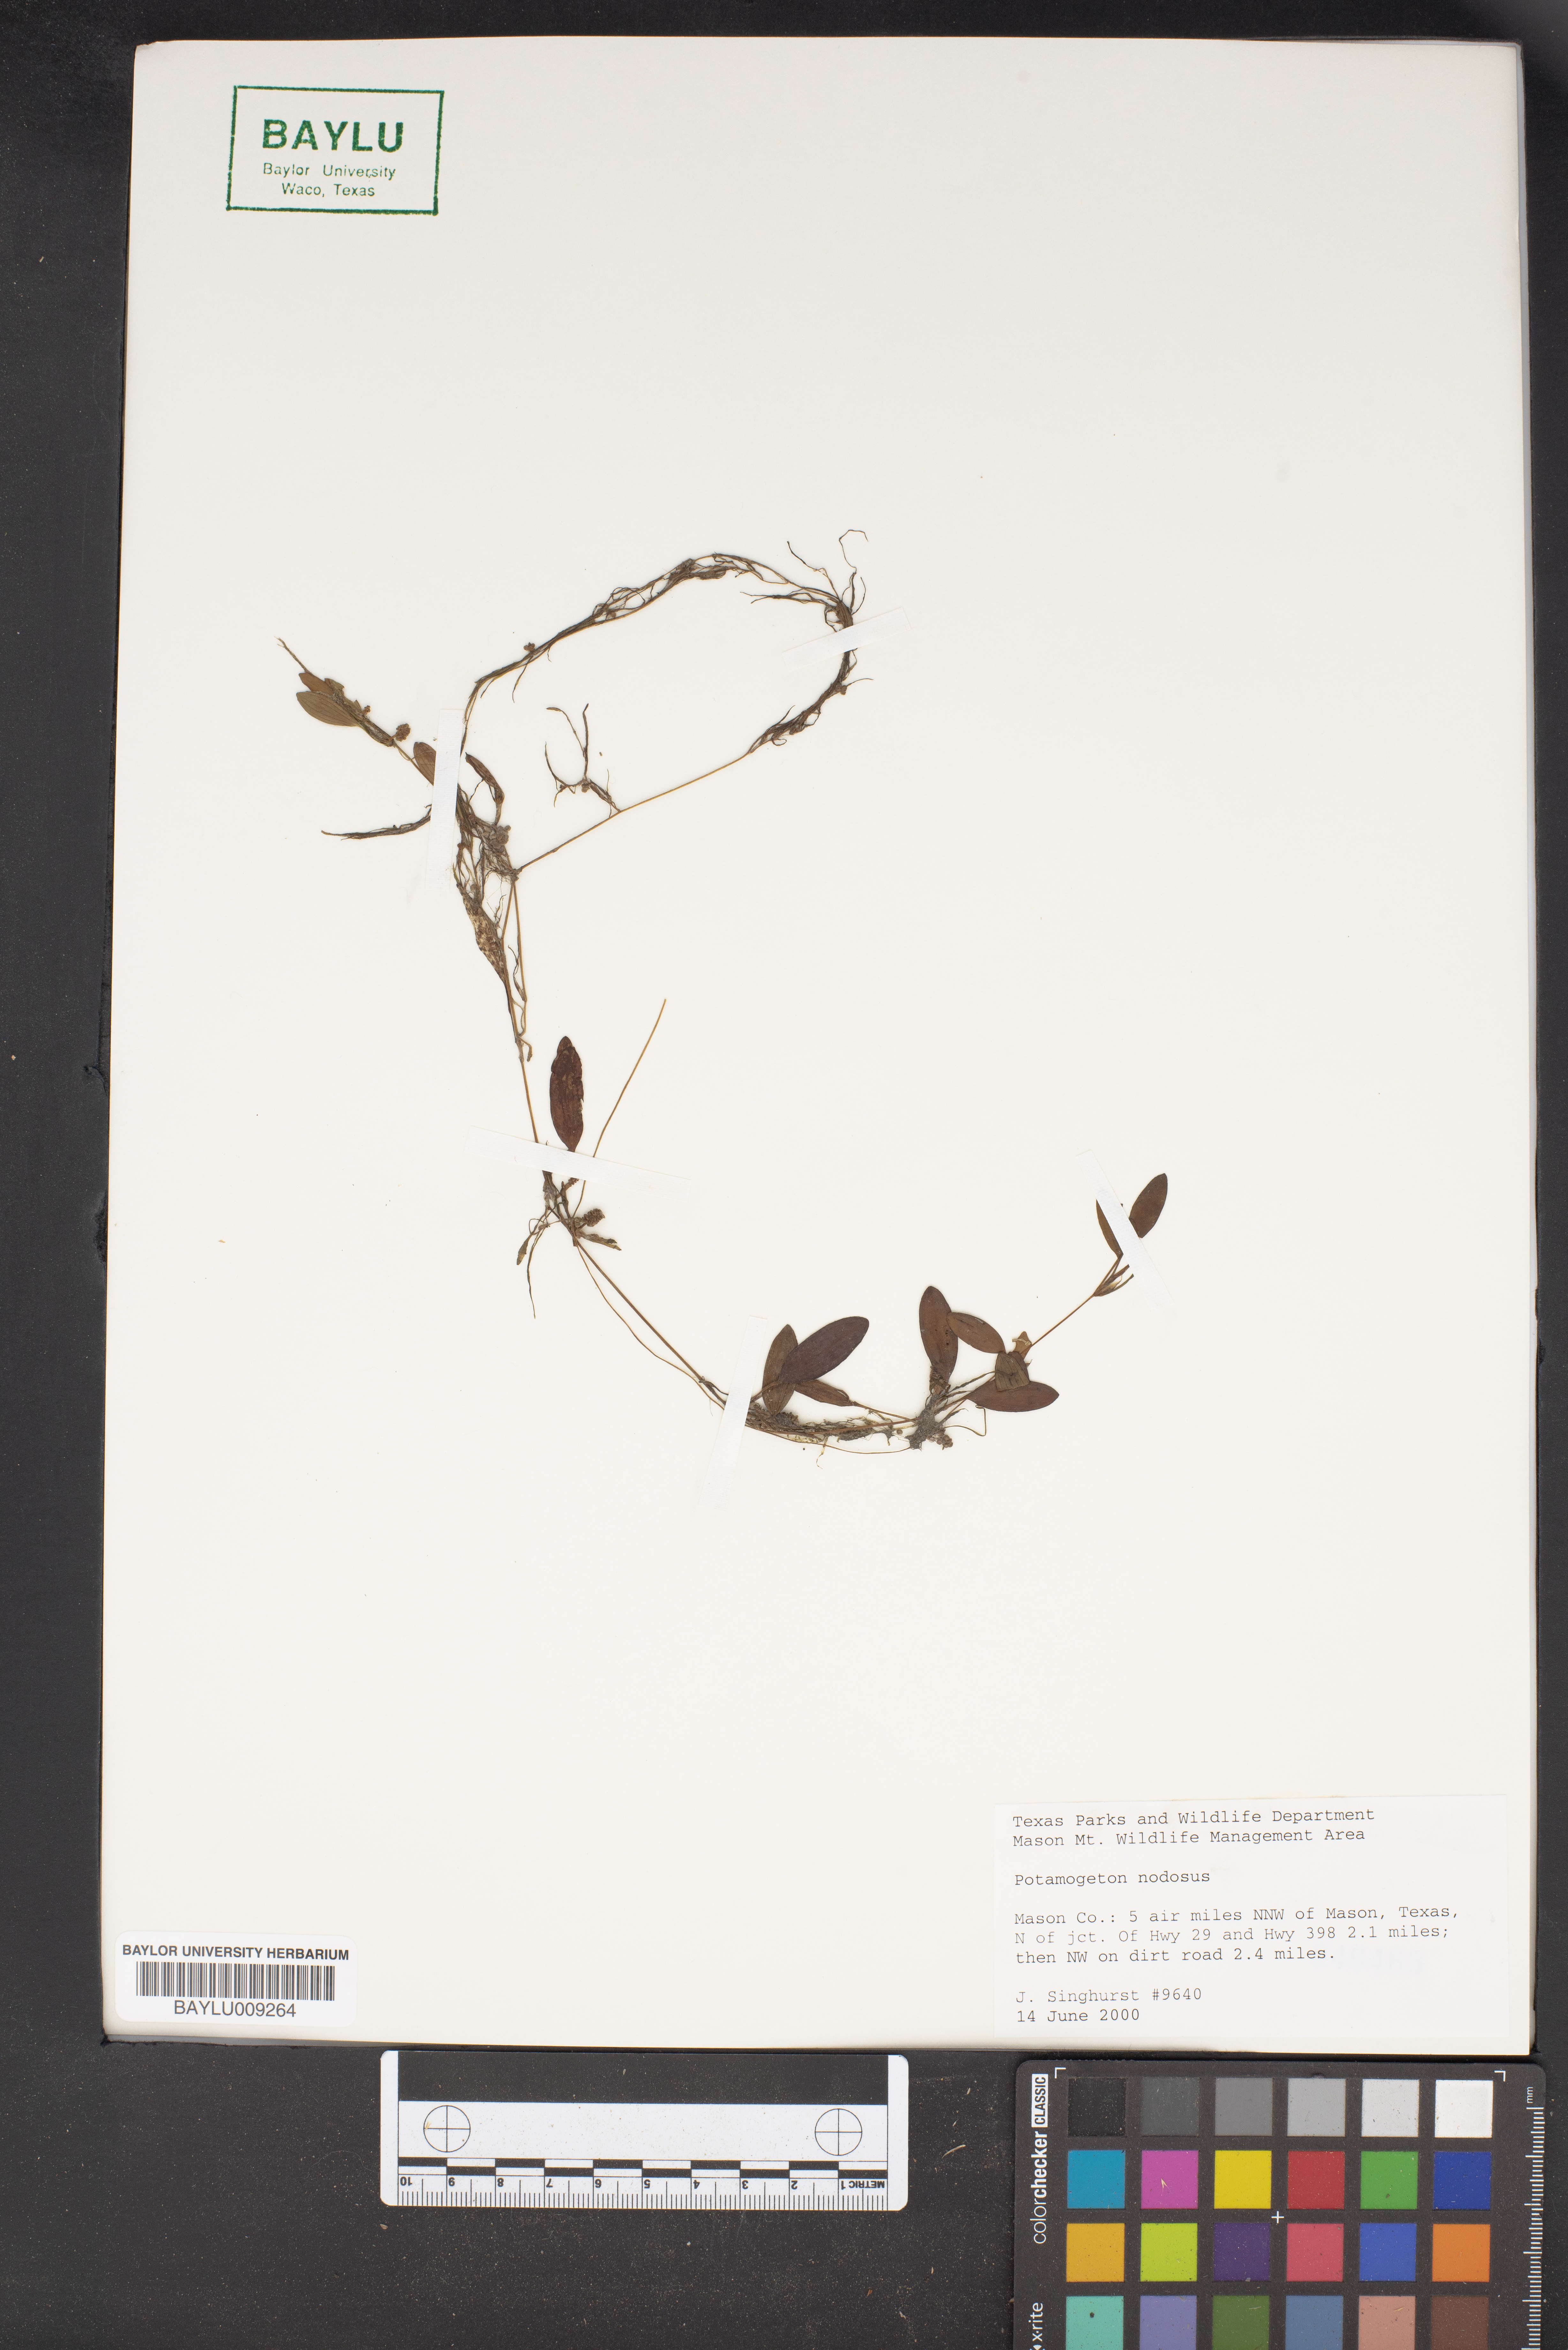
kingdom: Plantae
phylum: Tracheophyta
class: Liliopsida
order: Alismatales
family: Potamogetonaceae
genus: Potamogeton
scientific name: Potamogeton nodosus
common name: Loddon pondweed
